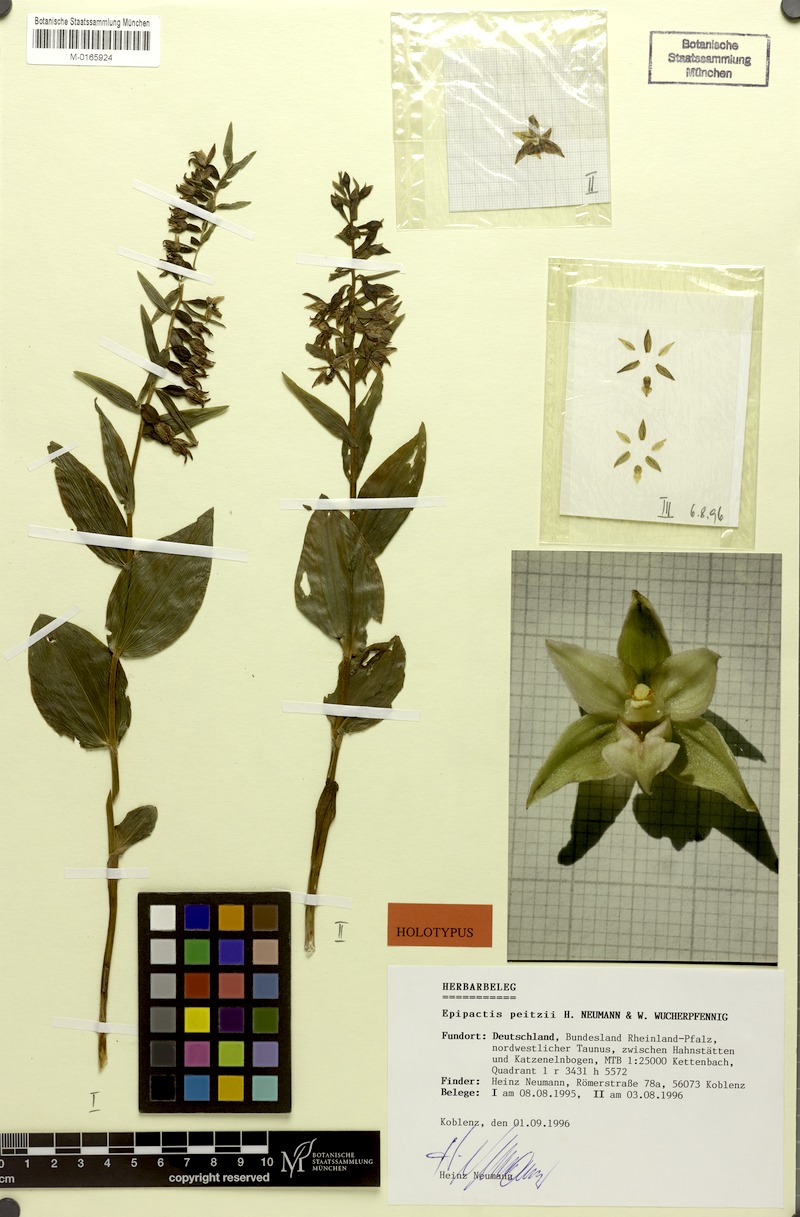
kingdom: Plantae
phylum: Tracheophyta
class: Liliopsida
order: Asparagales
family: Orchidaceae
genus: Epipactis
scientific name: Epipactis leptochila
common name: Narrow-lipped helleborine
